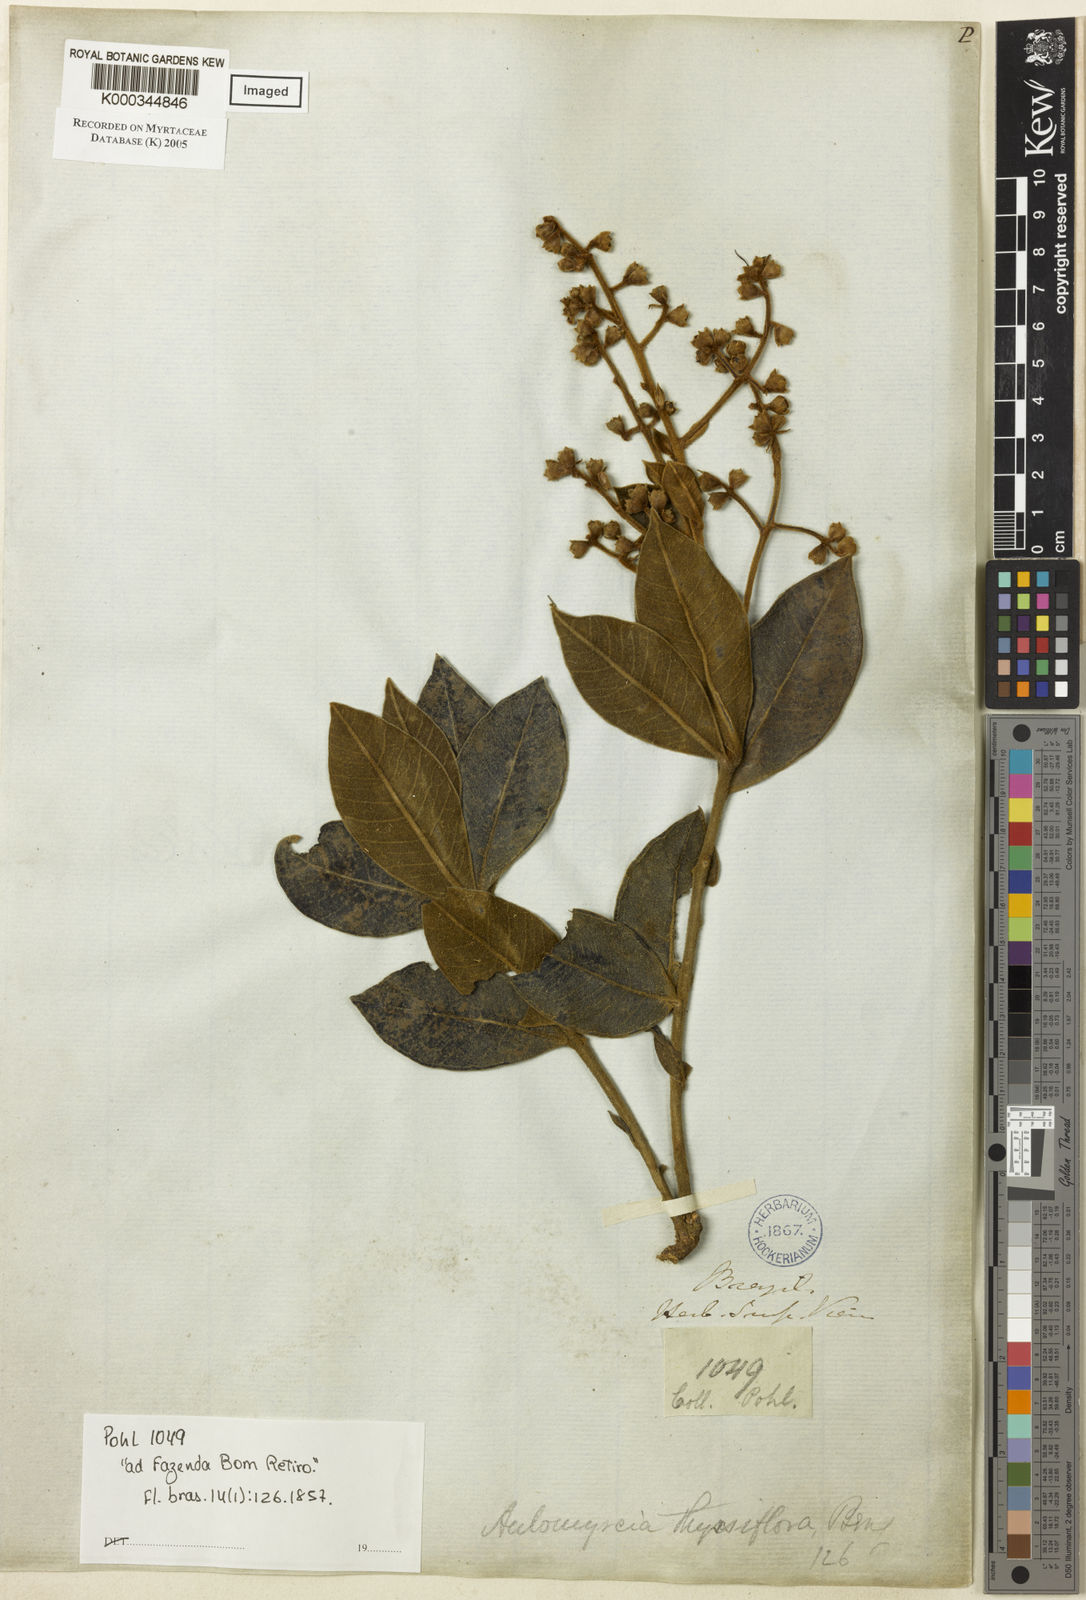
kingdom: Plantae
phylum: Tracheophyta
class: Magnoliopsida
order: Myrtales
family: Myrtaceae
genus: Myrcia
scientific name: Myrcia vestita
